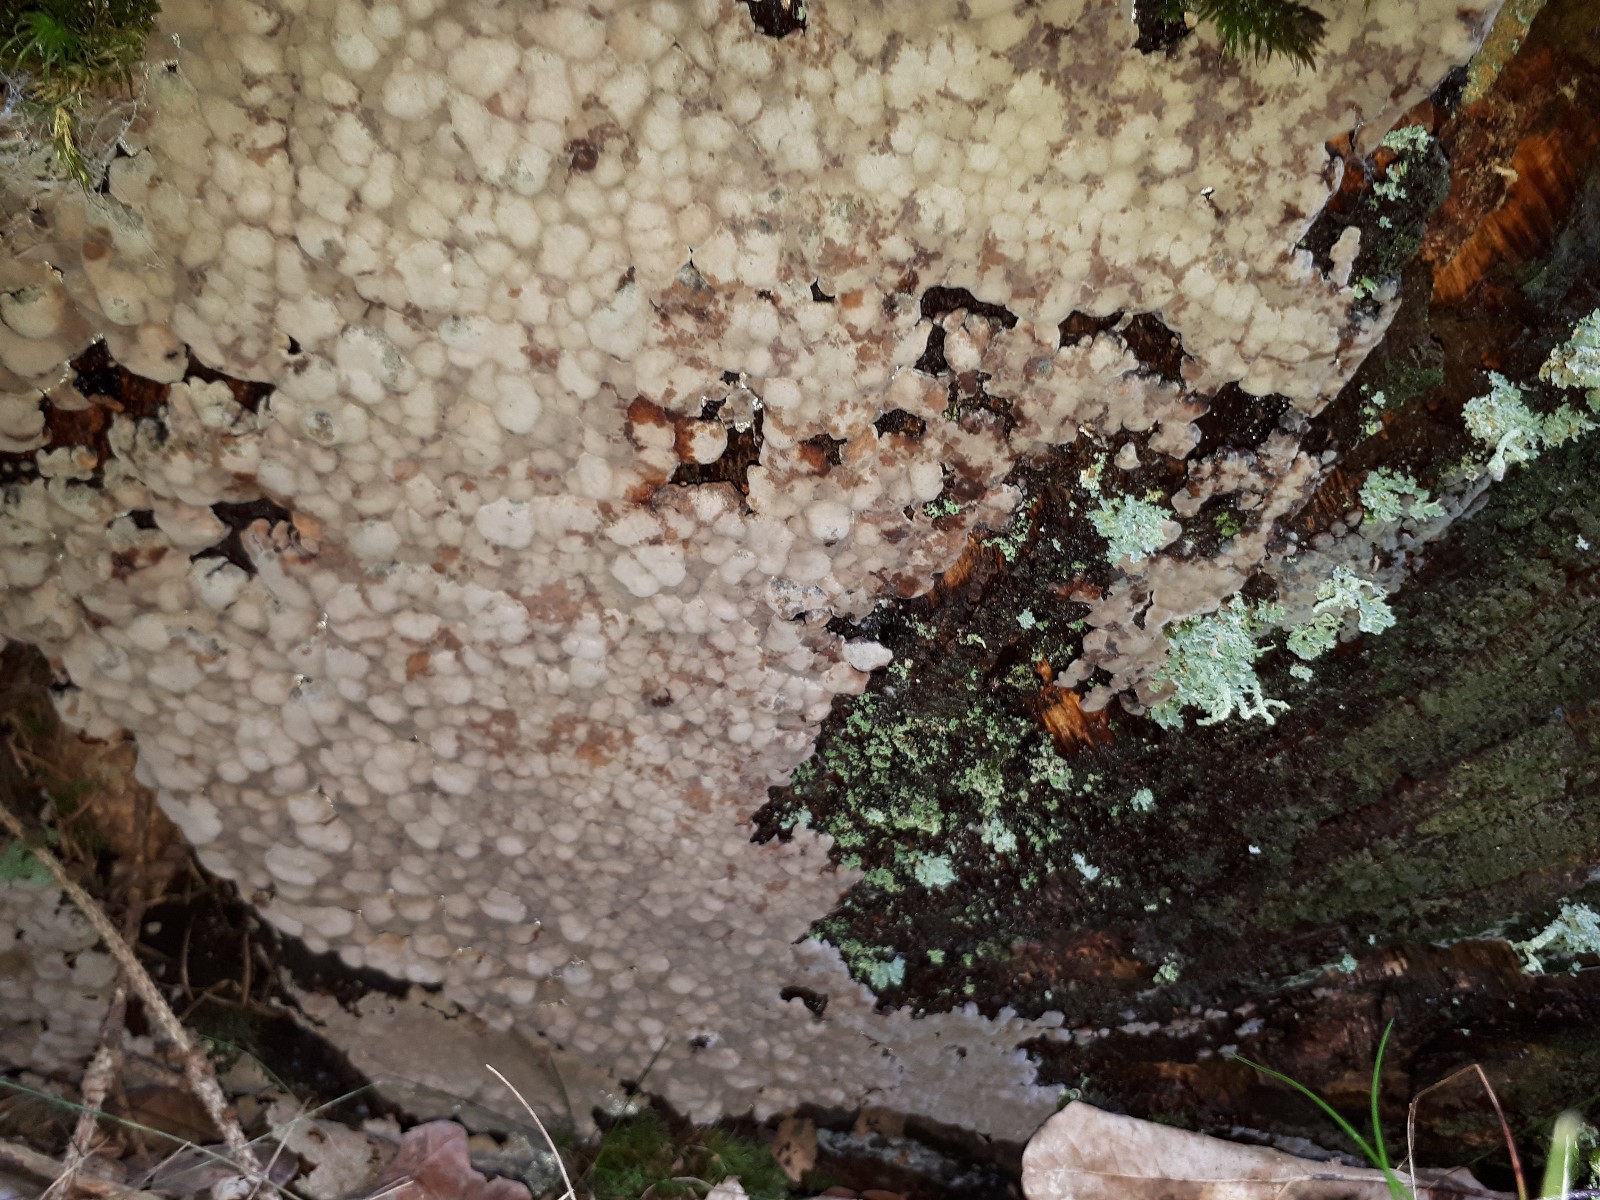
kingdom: Fungi
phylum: Basidiomycota
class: Agaricomycetes
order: Russulales
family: Stereaceae
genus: Xylobolus
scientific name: Xylobolus frustulatus
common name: mønster-lædersvamp
